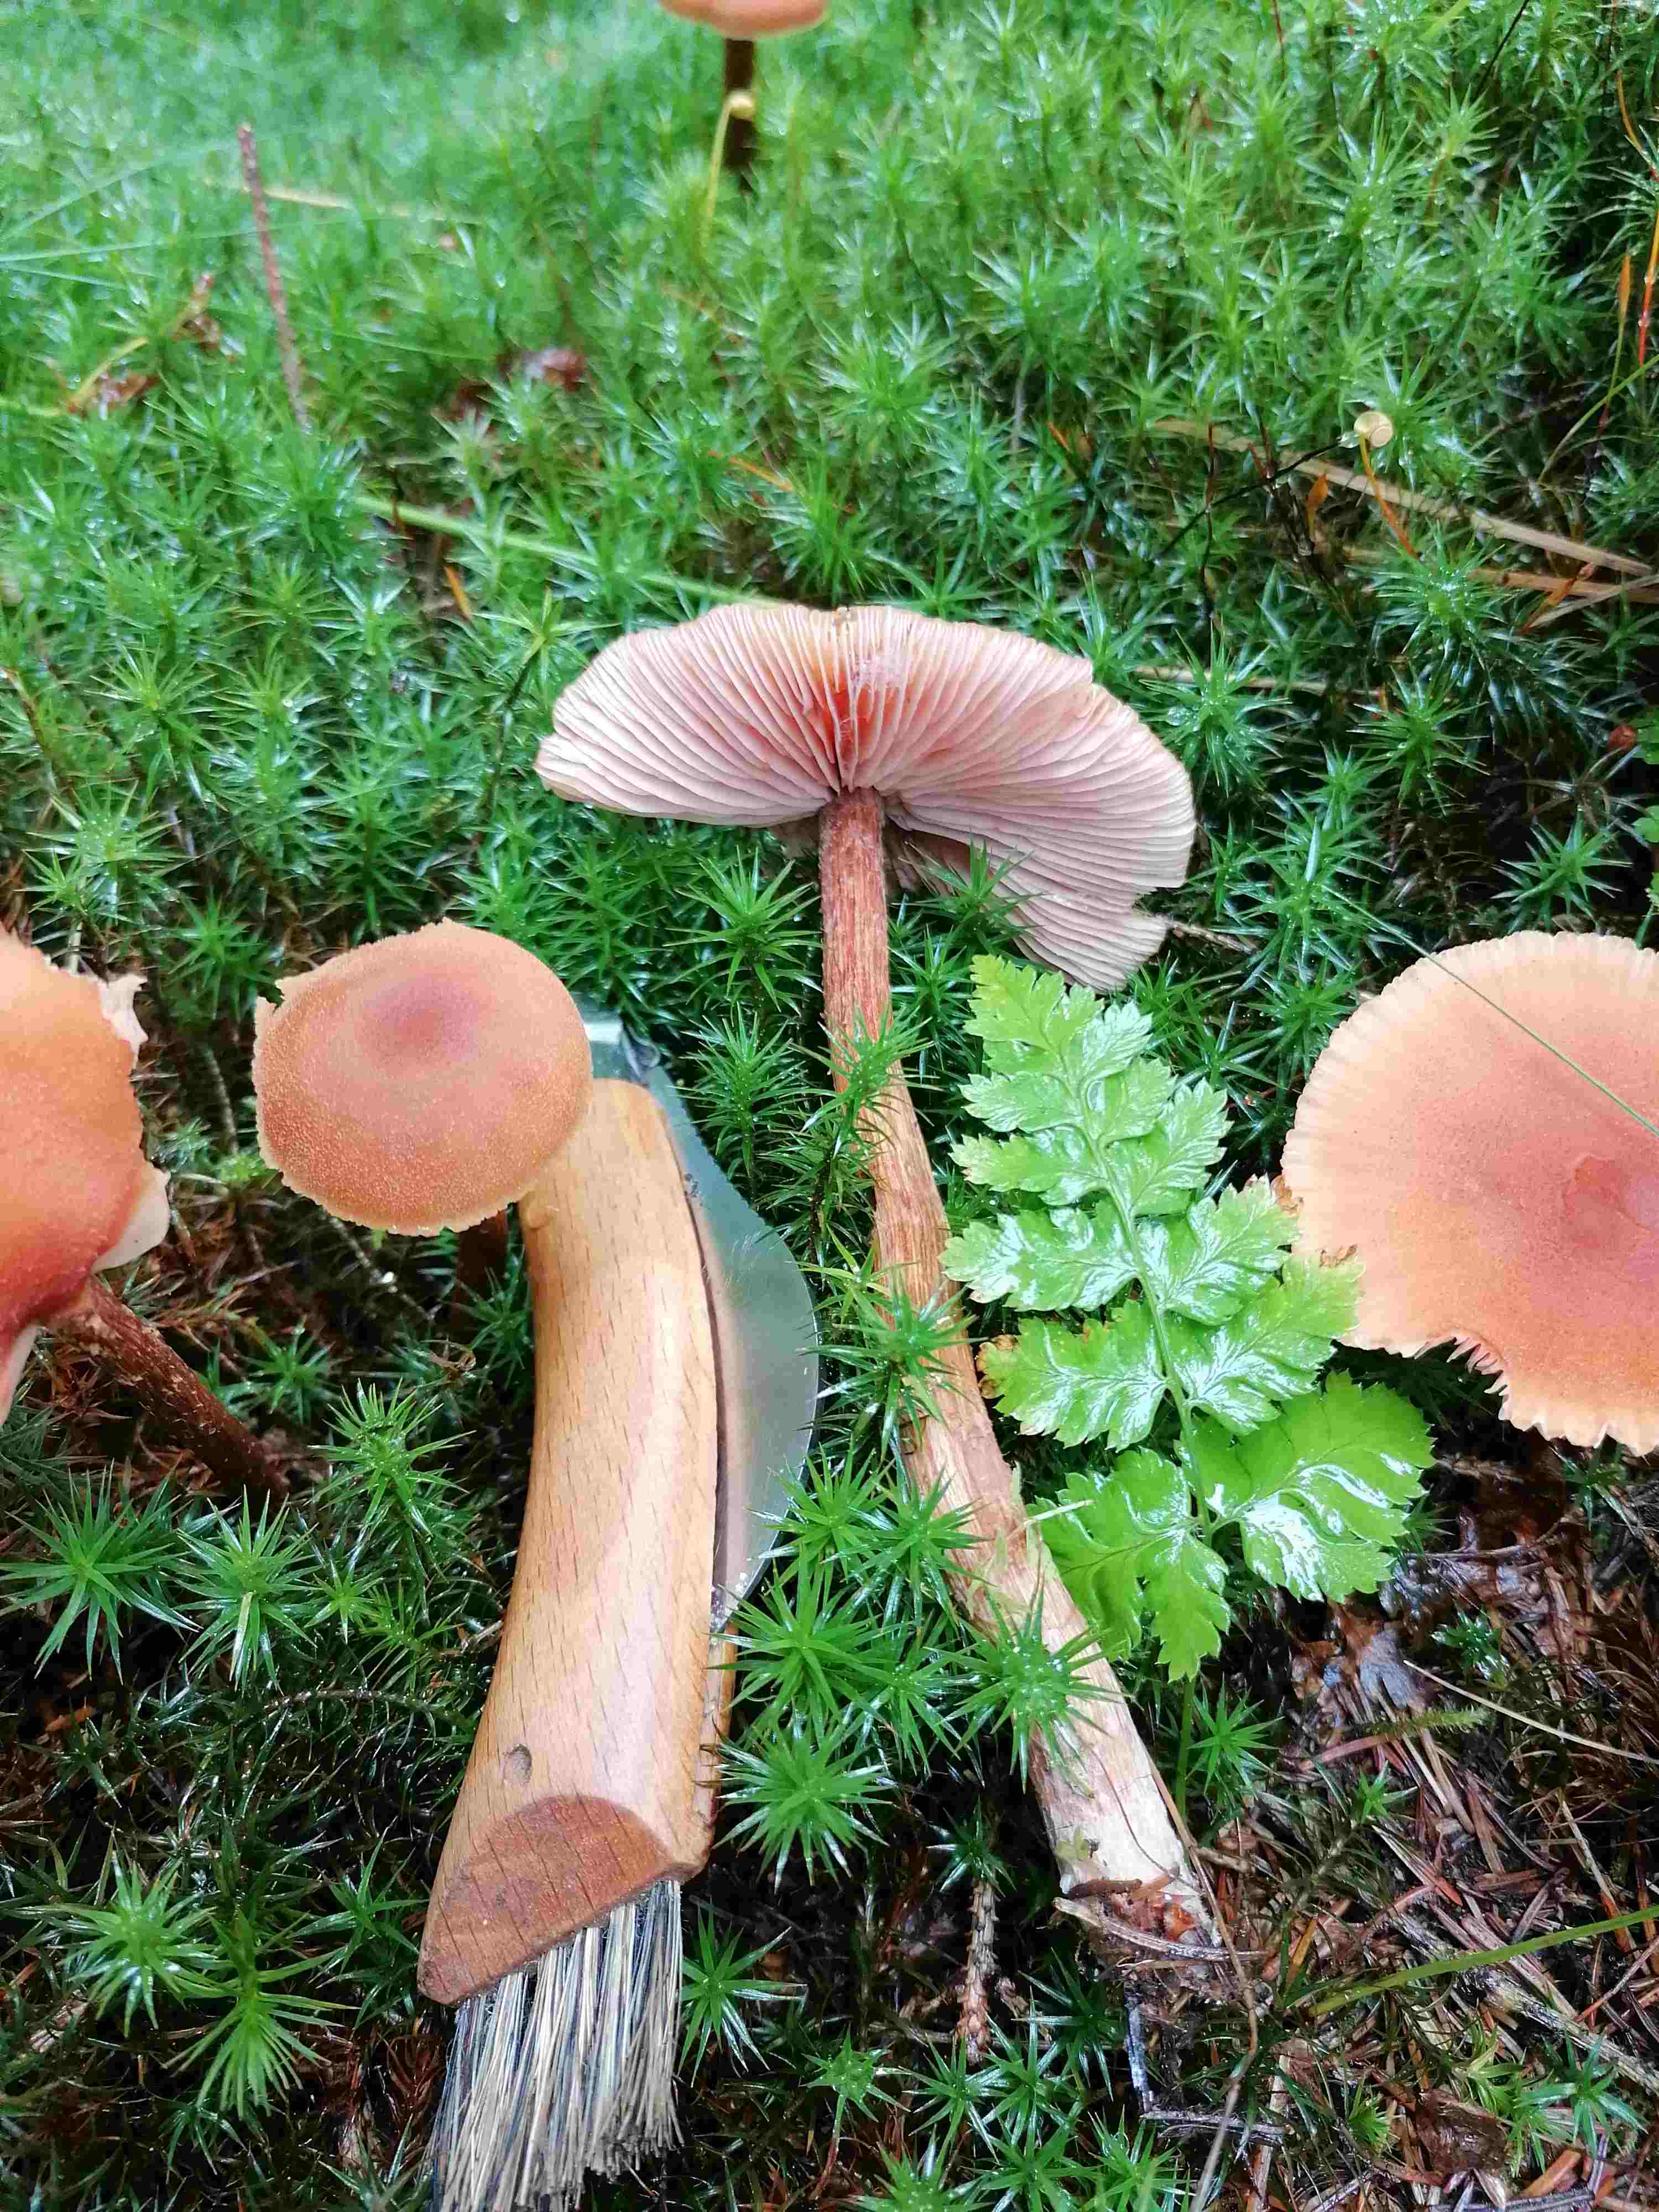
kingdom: Fungi
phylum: Basidiomycota
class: Agaricomycetes
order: Agaricales
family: Hydnangiaceae
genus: Laccaria
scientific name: Laccaria proxima
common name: stor ametysthat
